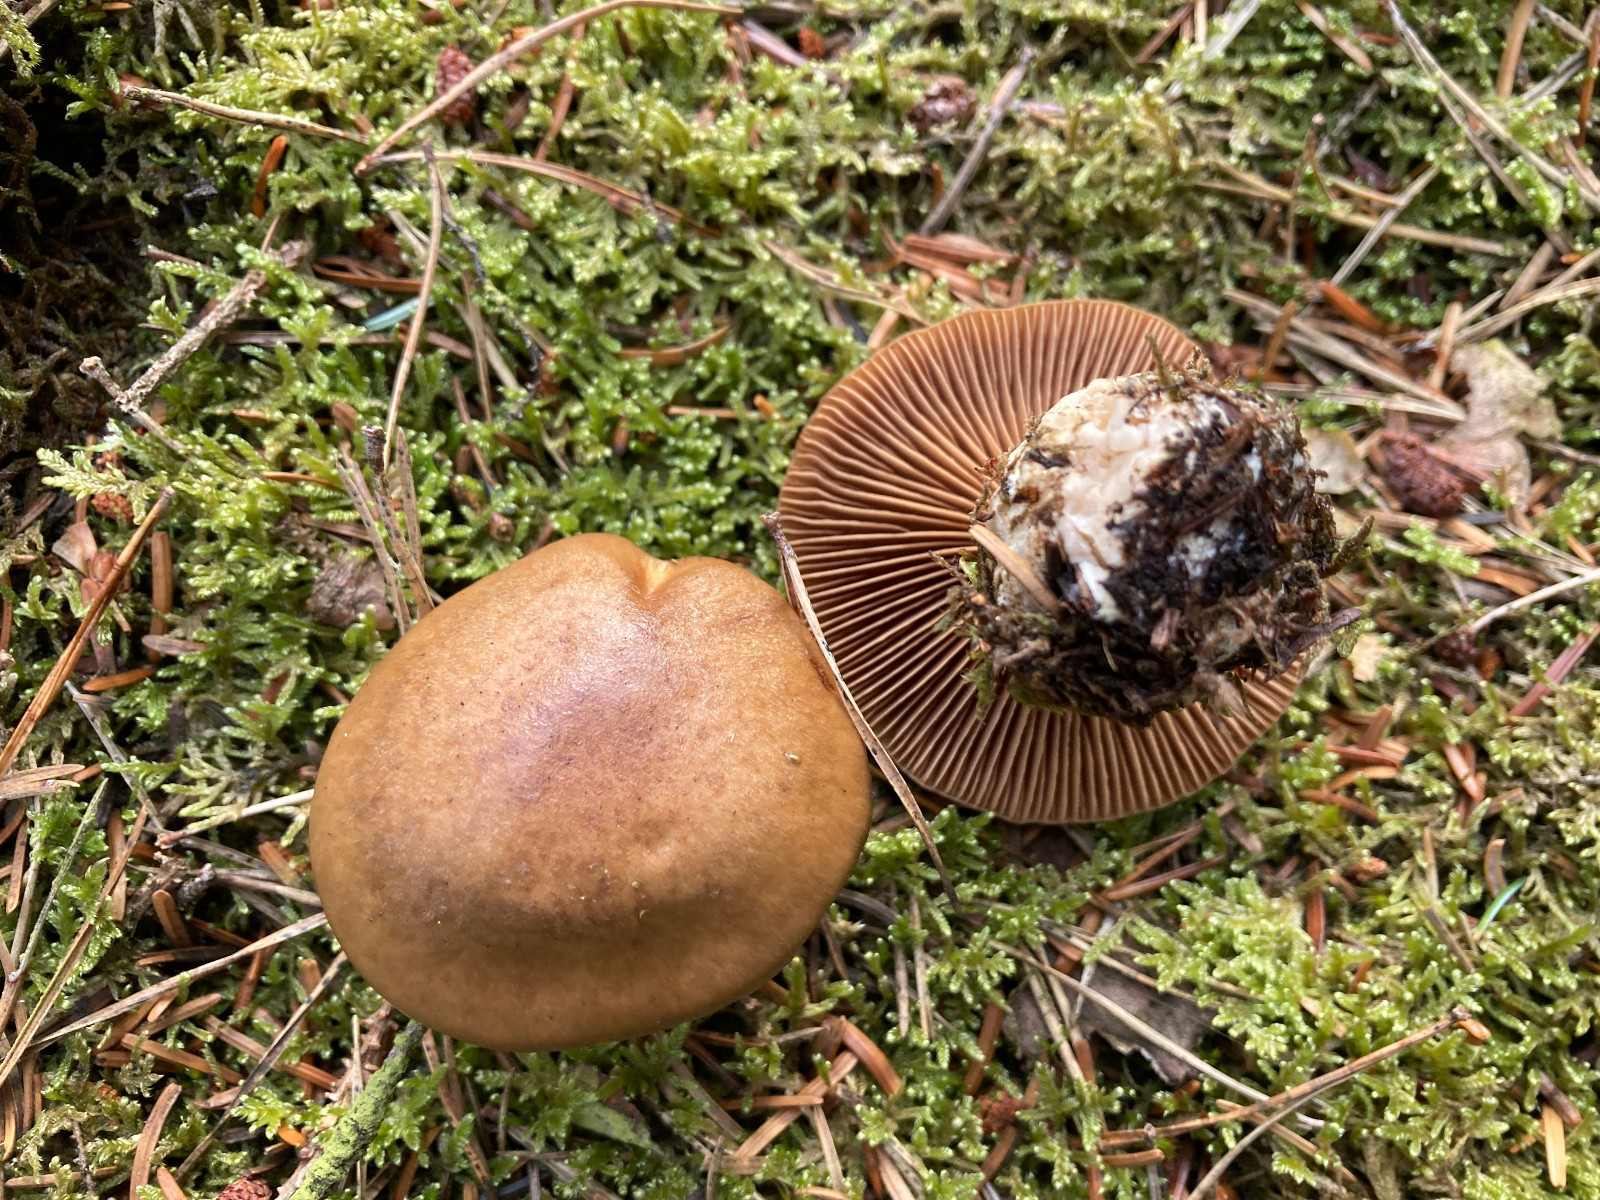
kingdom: Fungi
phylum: Basidiomycota
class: Agaricomycetes
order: Agaricales
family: Cortinariaceae
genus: Cortinarius
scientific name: Cortinarius
